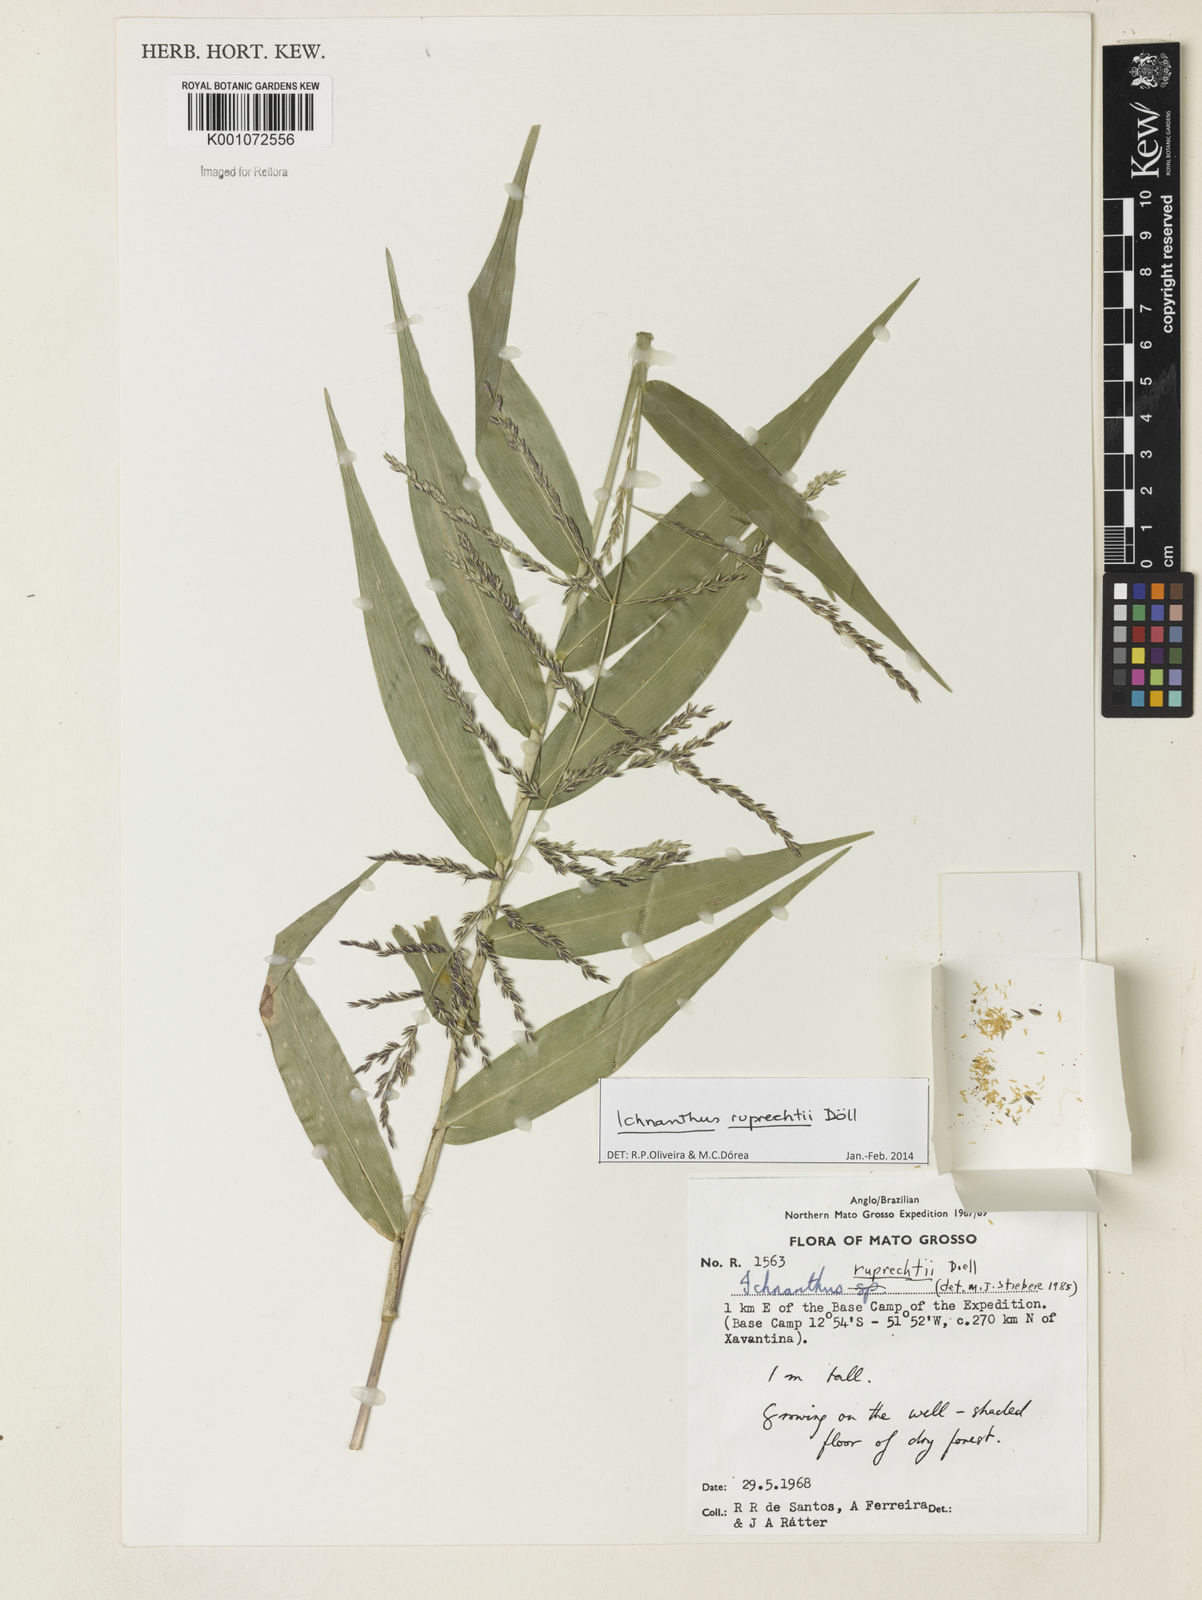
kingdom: Plantae
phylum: Tracheophyta
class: Liliopsida
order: Poales
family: Poaceae
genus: Ichnanthus
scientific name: Ichnanthus
